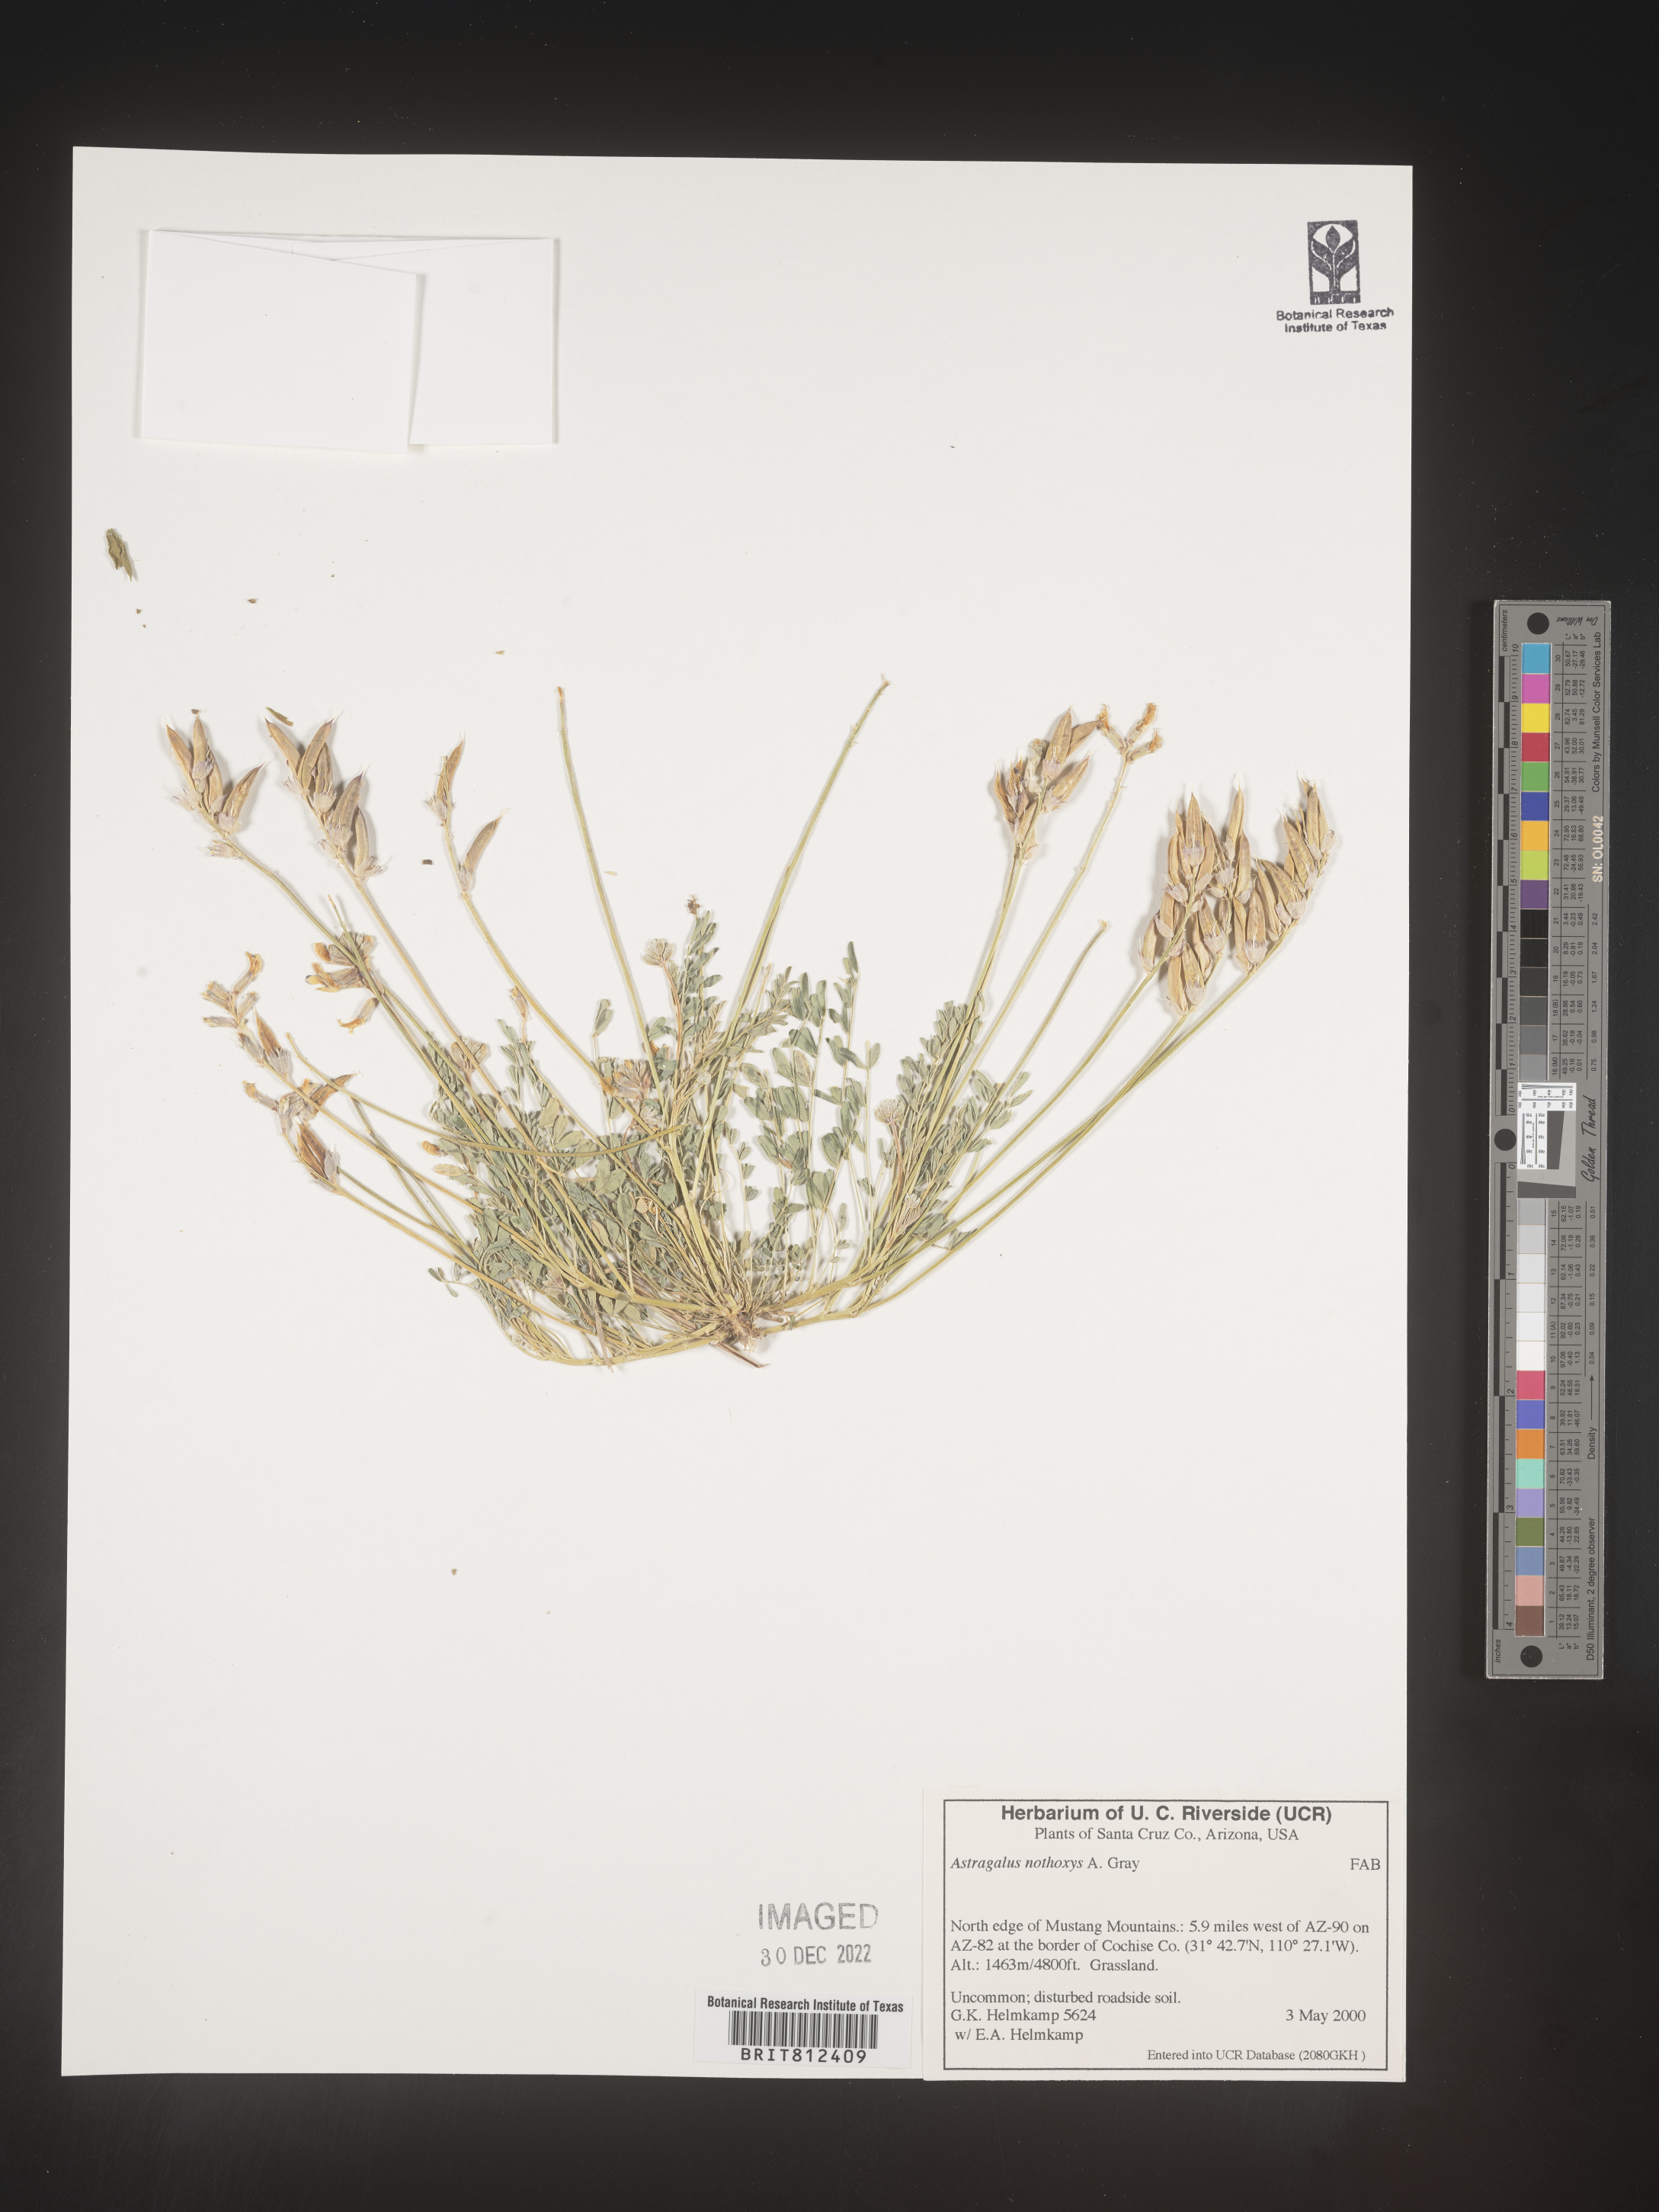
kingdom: Plantae
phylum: Tracheophyta
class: Magnoliopsida
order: Fabales
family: Fabaceae
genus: Astragalus
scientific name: Astragalus
